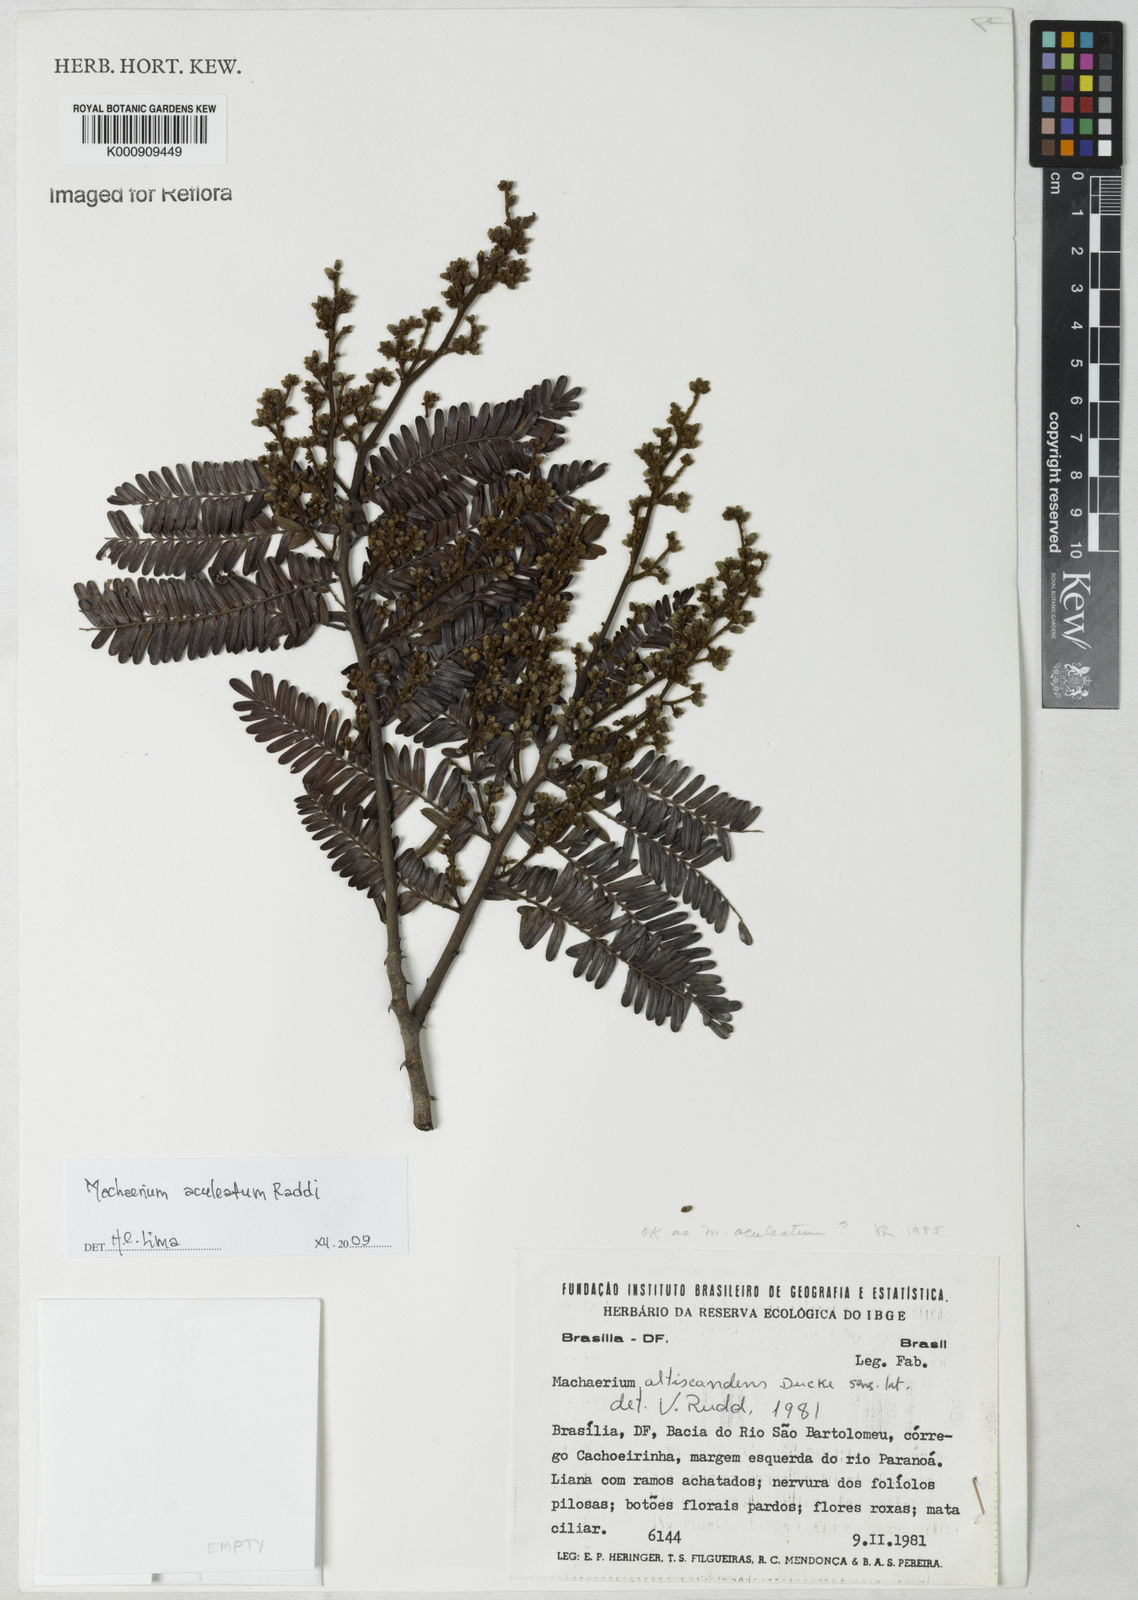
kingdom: Plantae
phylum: Tracheophyta
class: Magnoliopsida
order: Fabales
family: Fabaceae
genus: Machaerium
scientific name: Machaerium aculeatum
